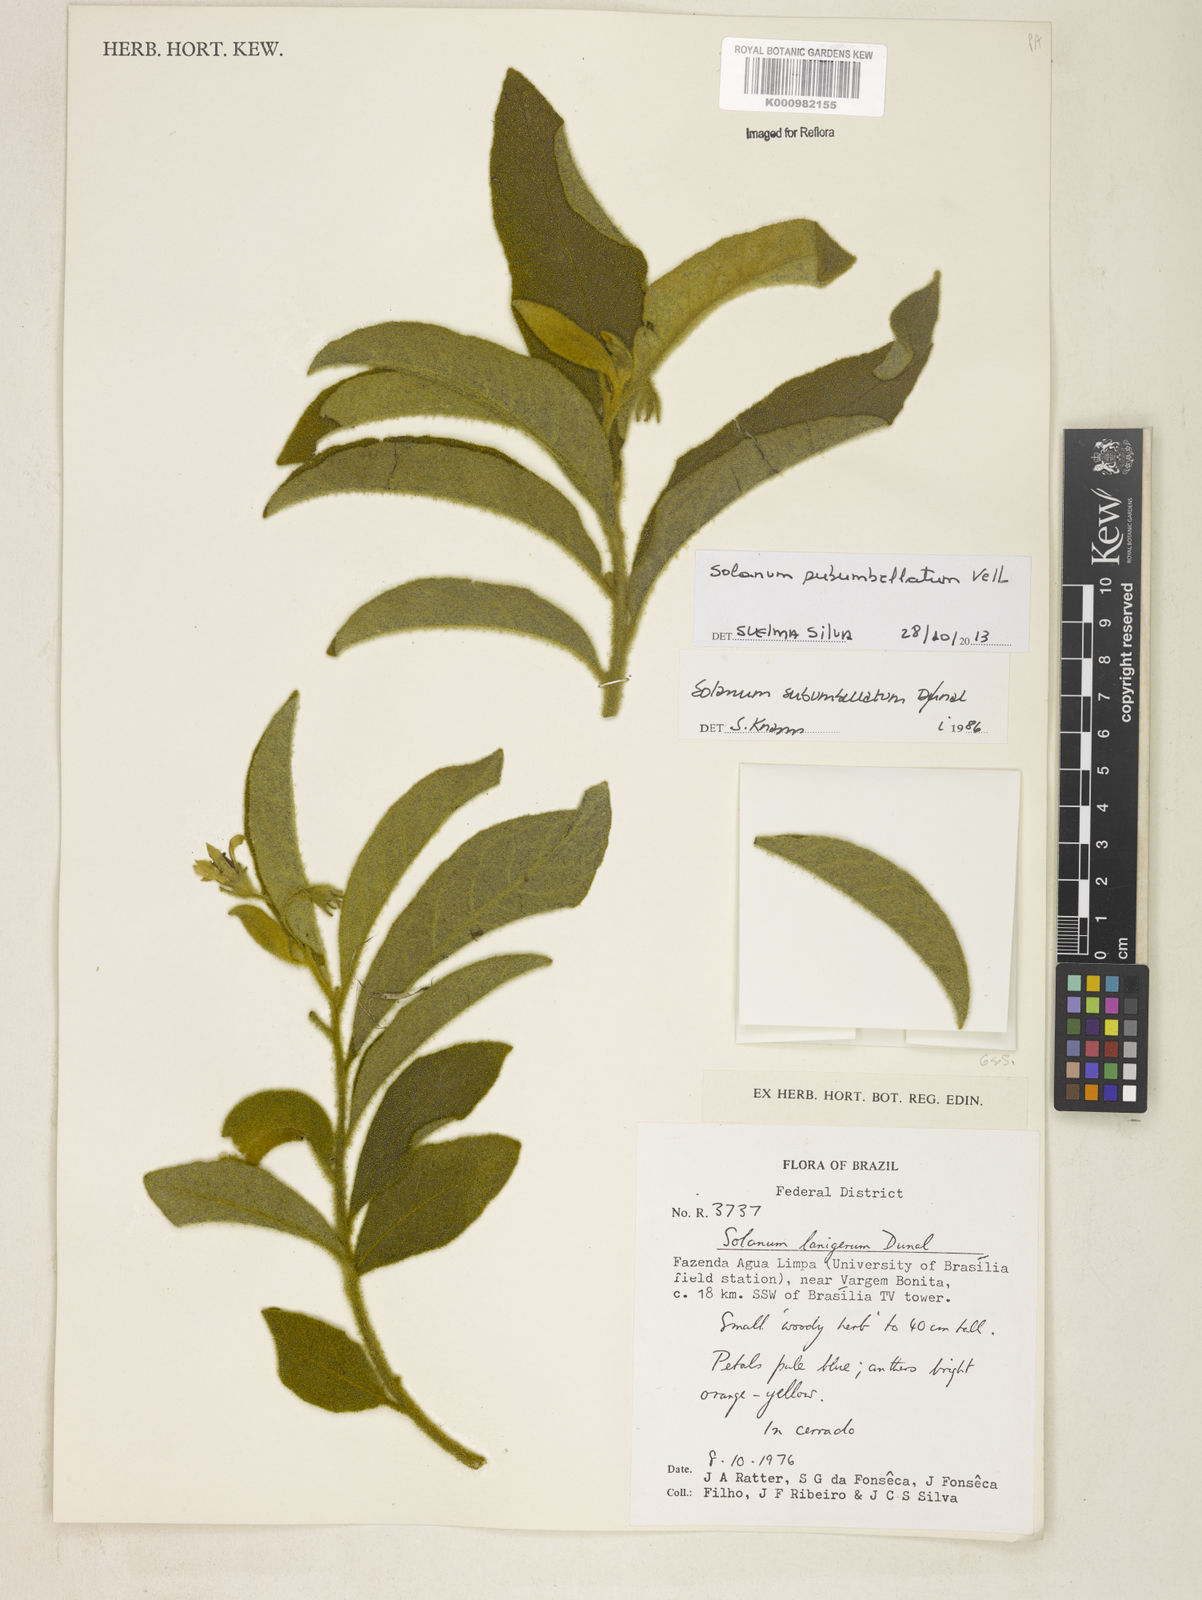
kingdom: Plantae
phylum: Tracheophyta
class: Magnoliopsida
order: Solanales
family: Solanaceae
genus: Solanum
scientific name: Solanum subumbellatum
